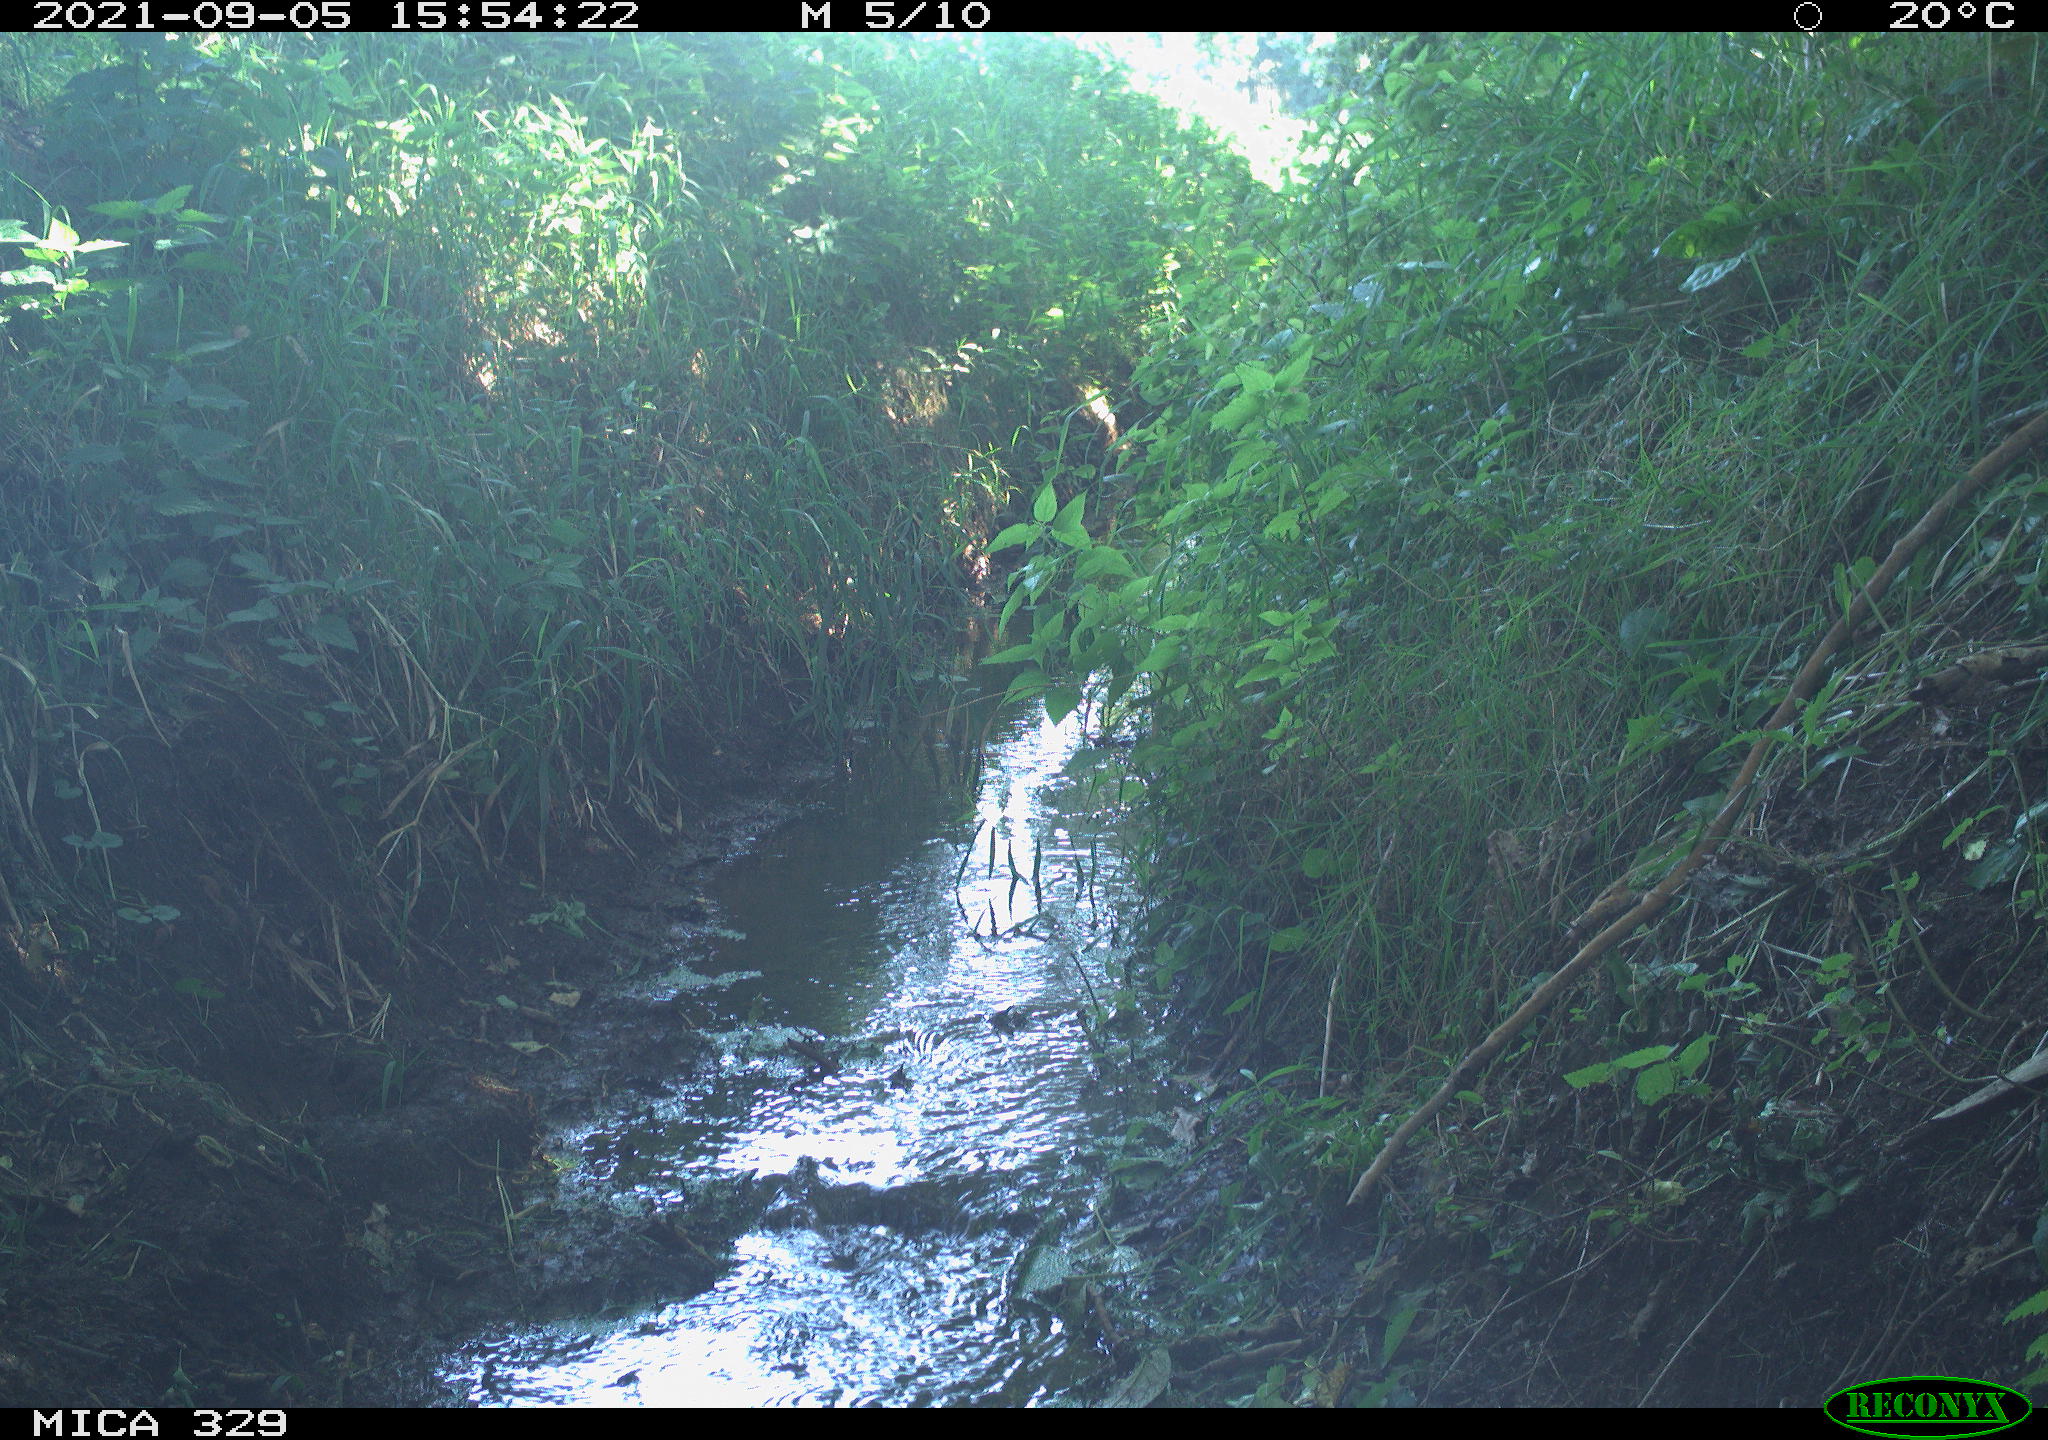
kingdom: Animalia
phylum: Chordata
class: Aves
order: Columbiformes
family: Columbidae
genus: Columba
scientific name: Columba palumbus
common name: Common wood pigeon
